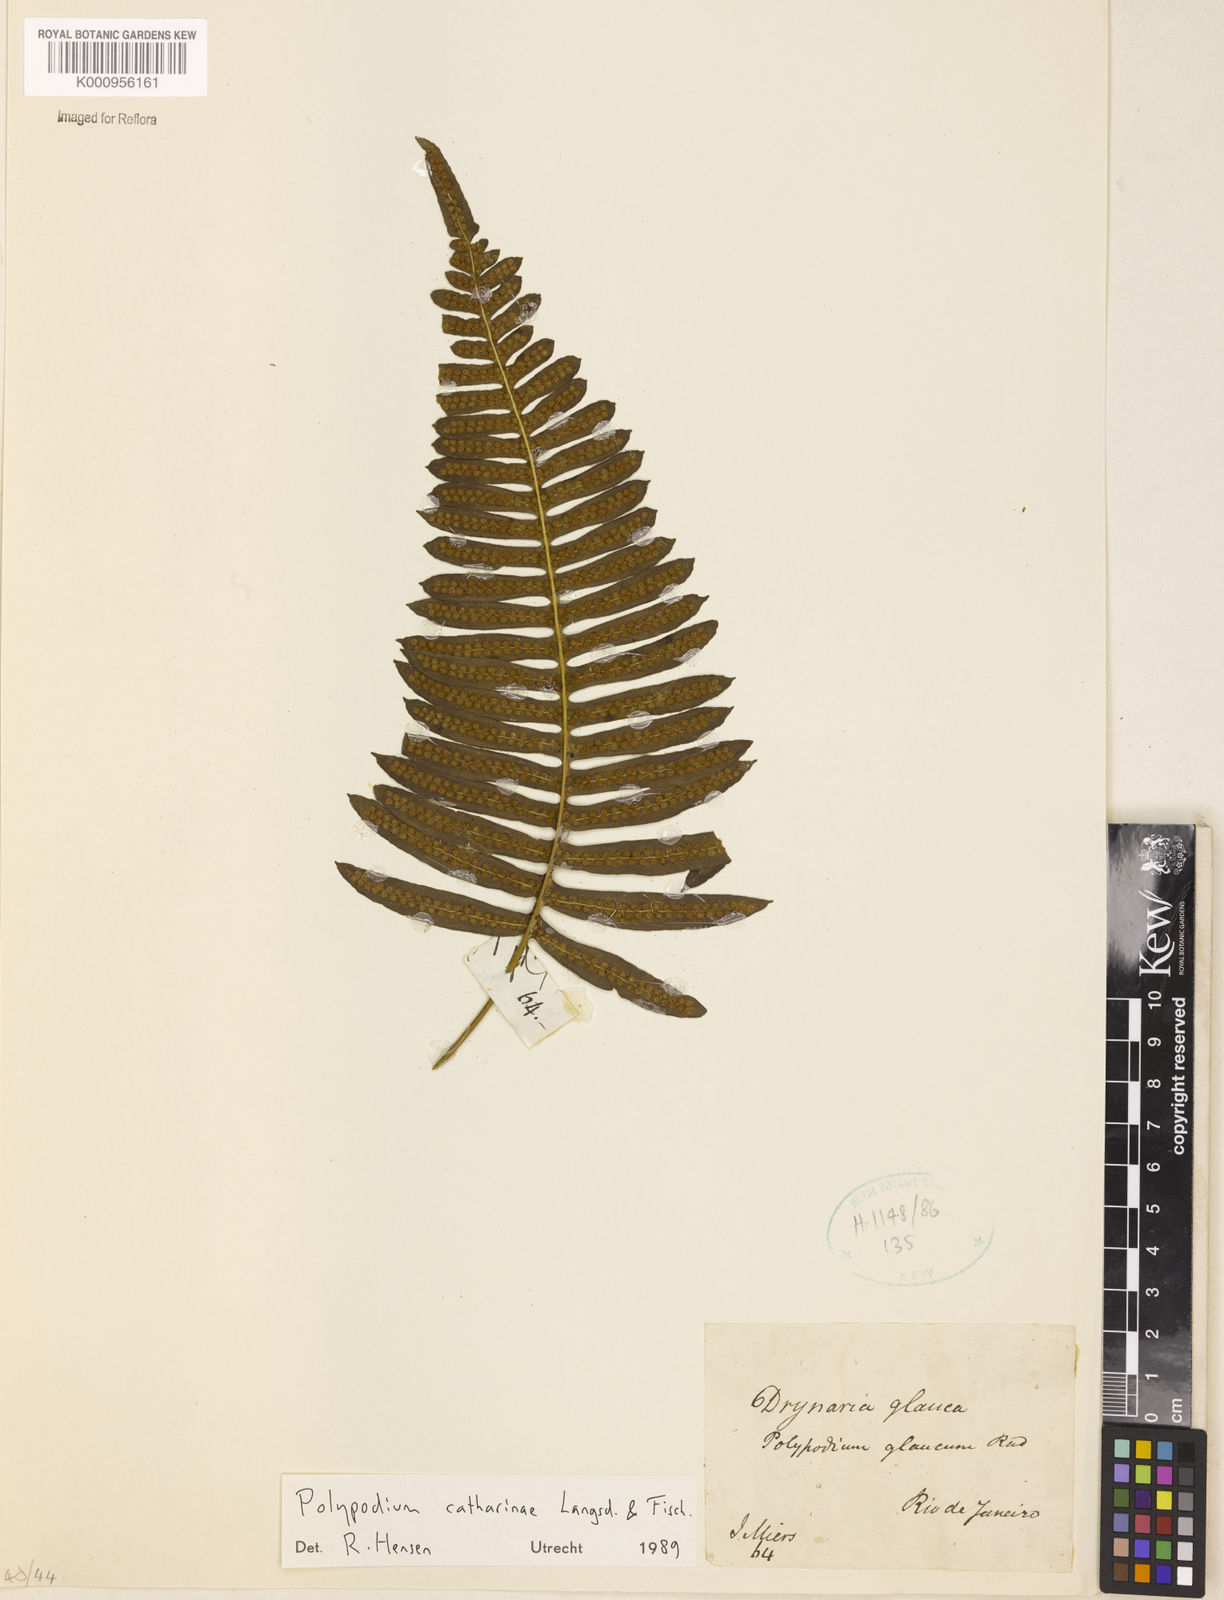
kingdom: Plantae
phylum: Tracheophyta
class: Polypodiopsida
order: Polypodiales
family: Polypodiaceae
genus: Serpocaulon
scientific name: Serpocaulon catharinae
